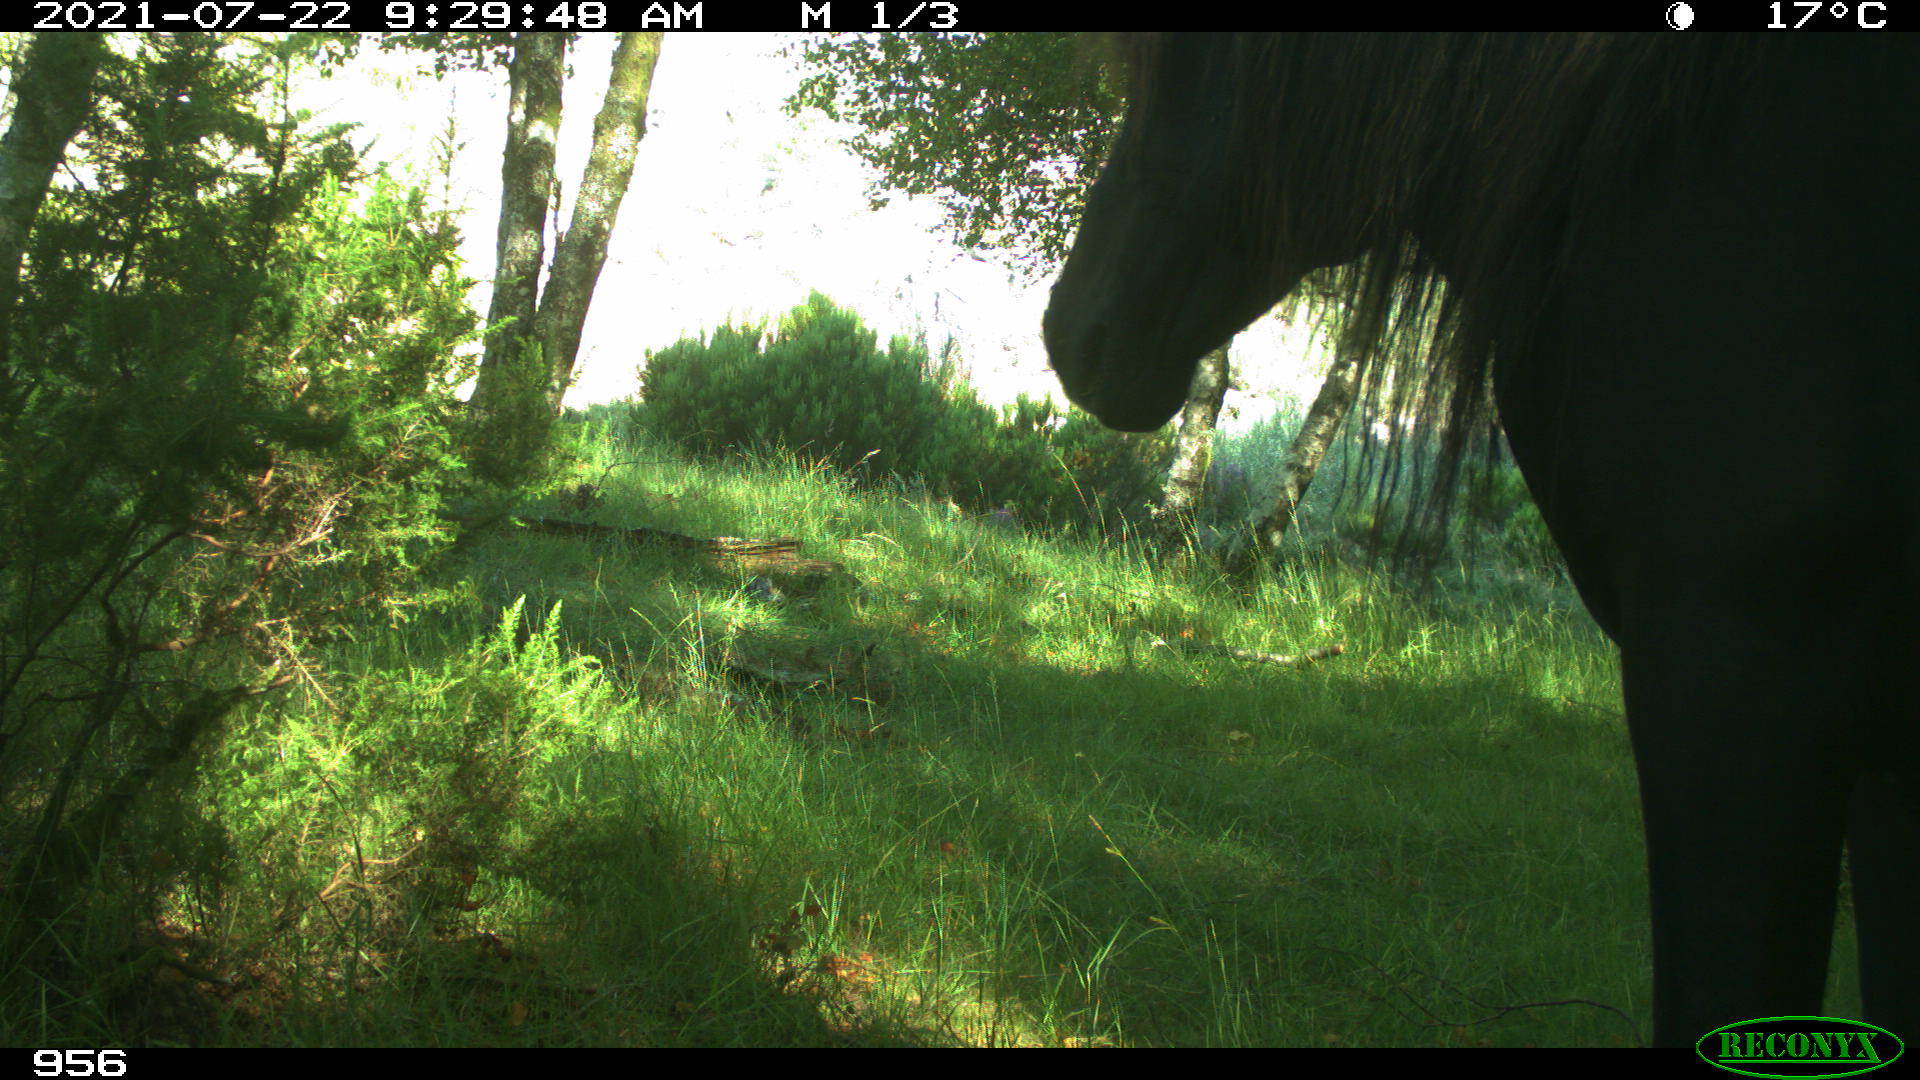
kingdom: Animalia
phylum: Chordata
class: Mammalia
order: Perissodactyla
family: Equidae
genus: Equus
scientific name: Equus caballus
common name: Horse
